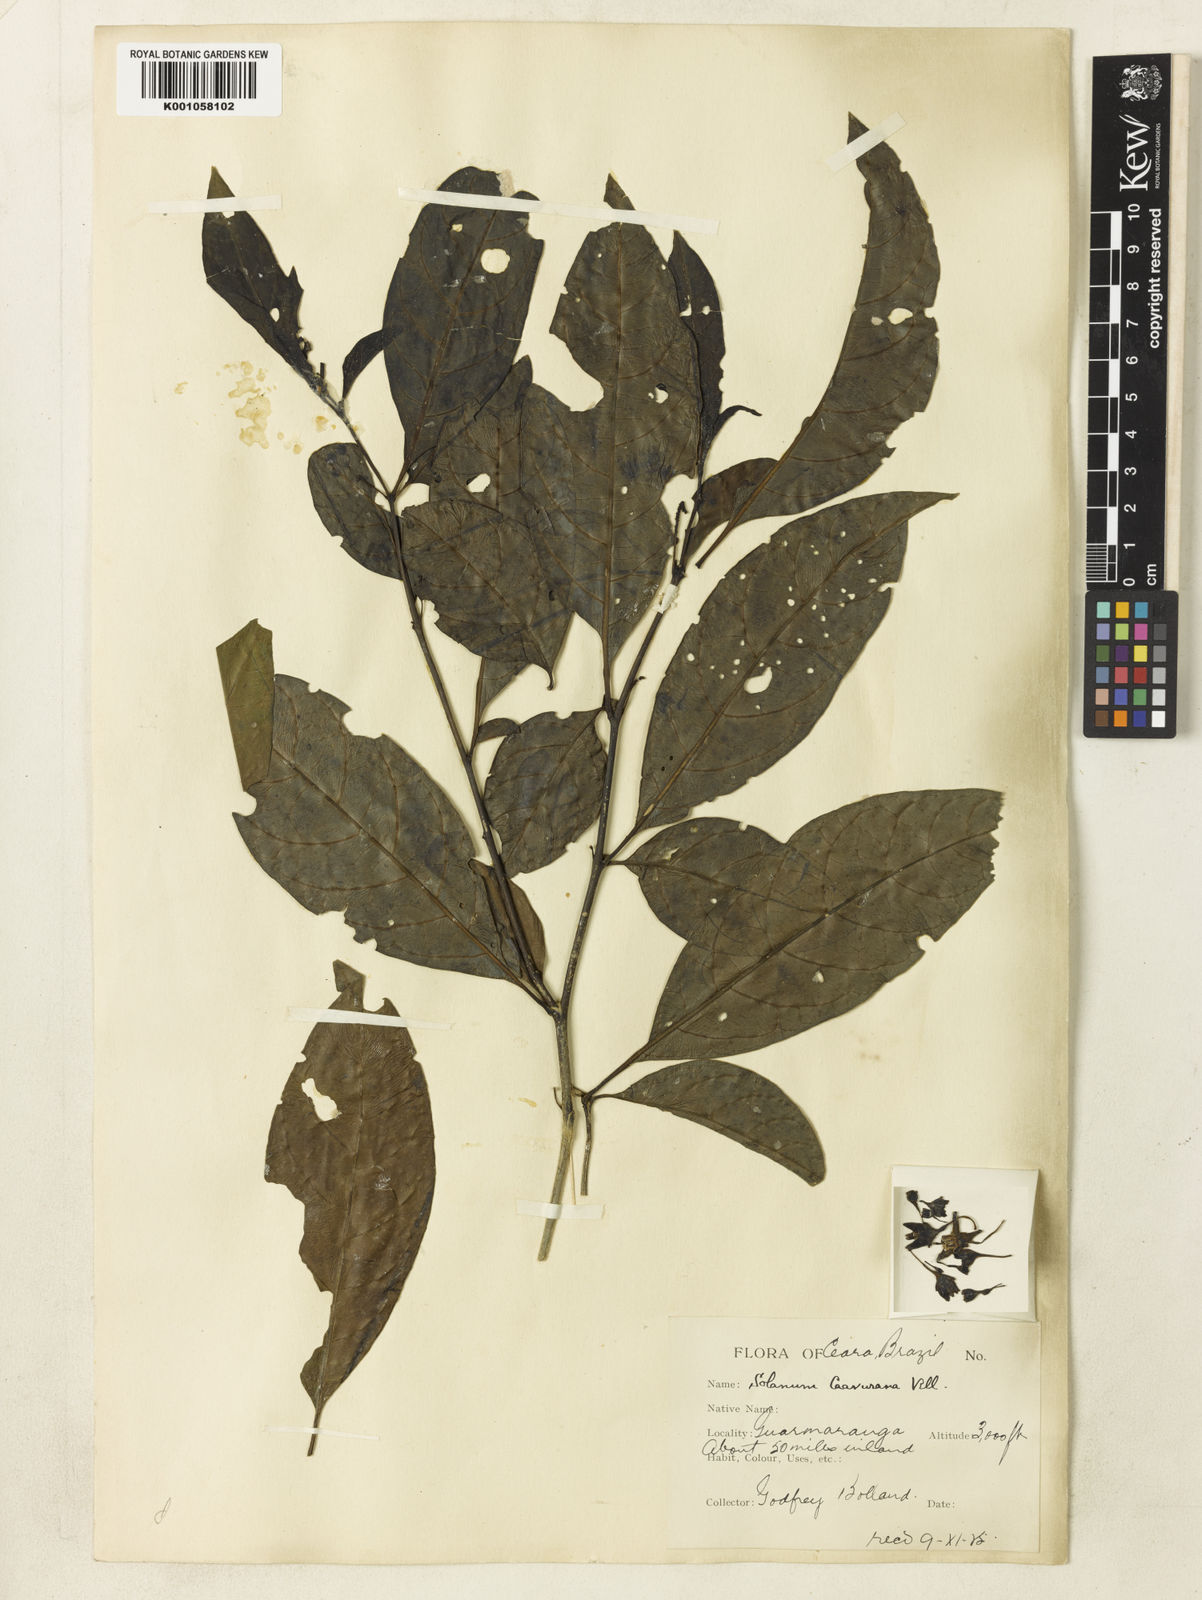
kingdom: Plantae
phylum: Tracheophyta
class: Magnoliopsida
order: Solanales
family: Solanaceae
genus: Solanum
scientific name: Solanum caavurana
